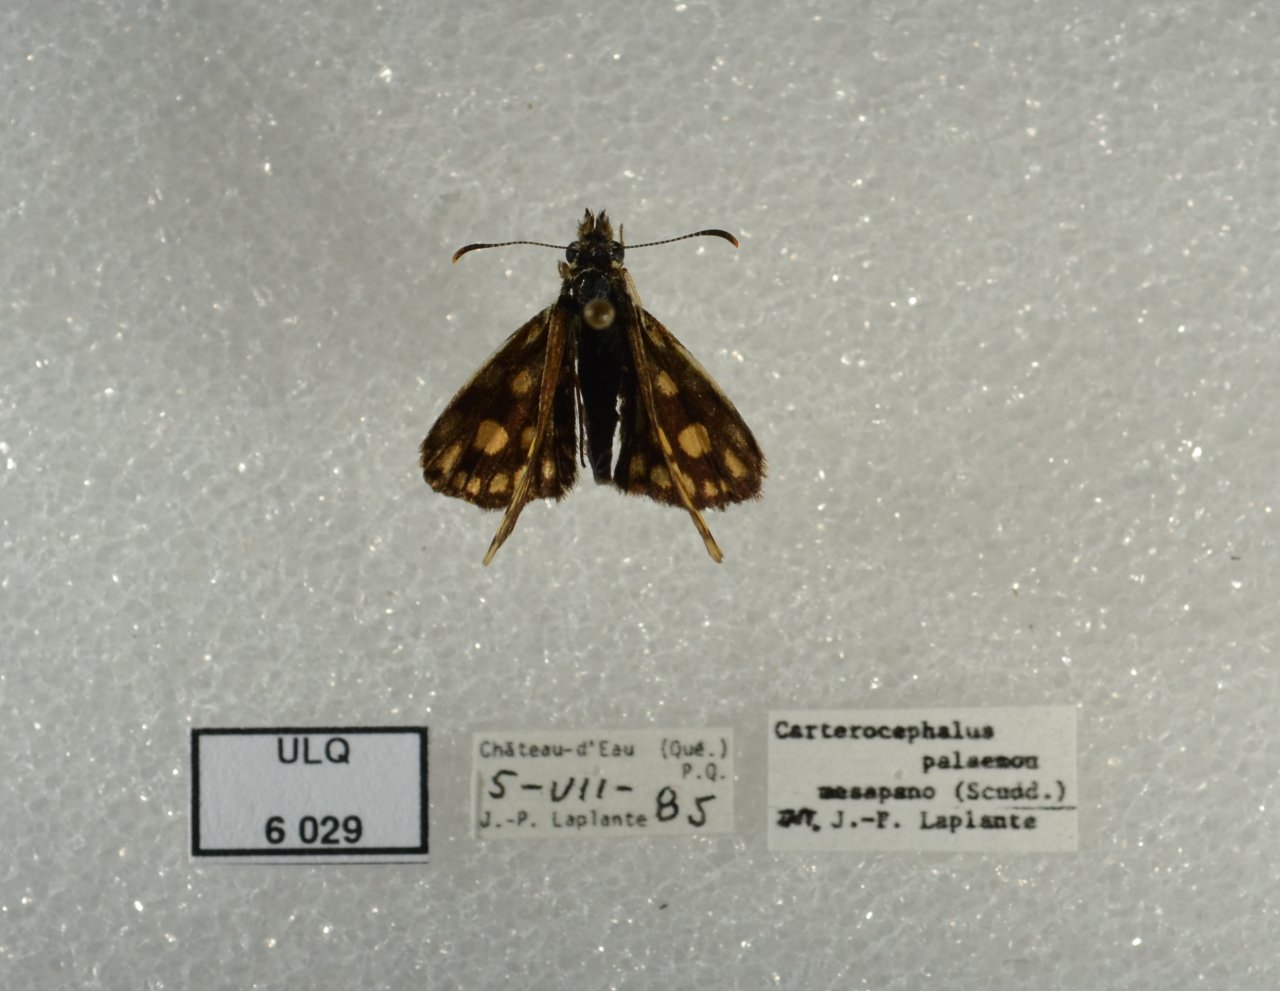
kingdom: Animalia
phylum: Arthropoda
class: Insecta
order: Lepidoptera
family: Hesperiidae
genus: Carterocephalus
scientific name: Carterocephalus palaemon
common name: Chequered Skipper
